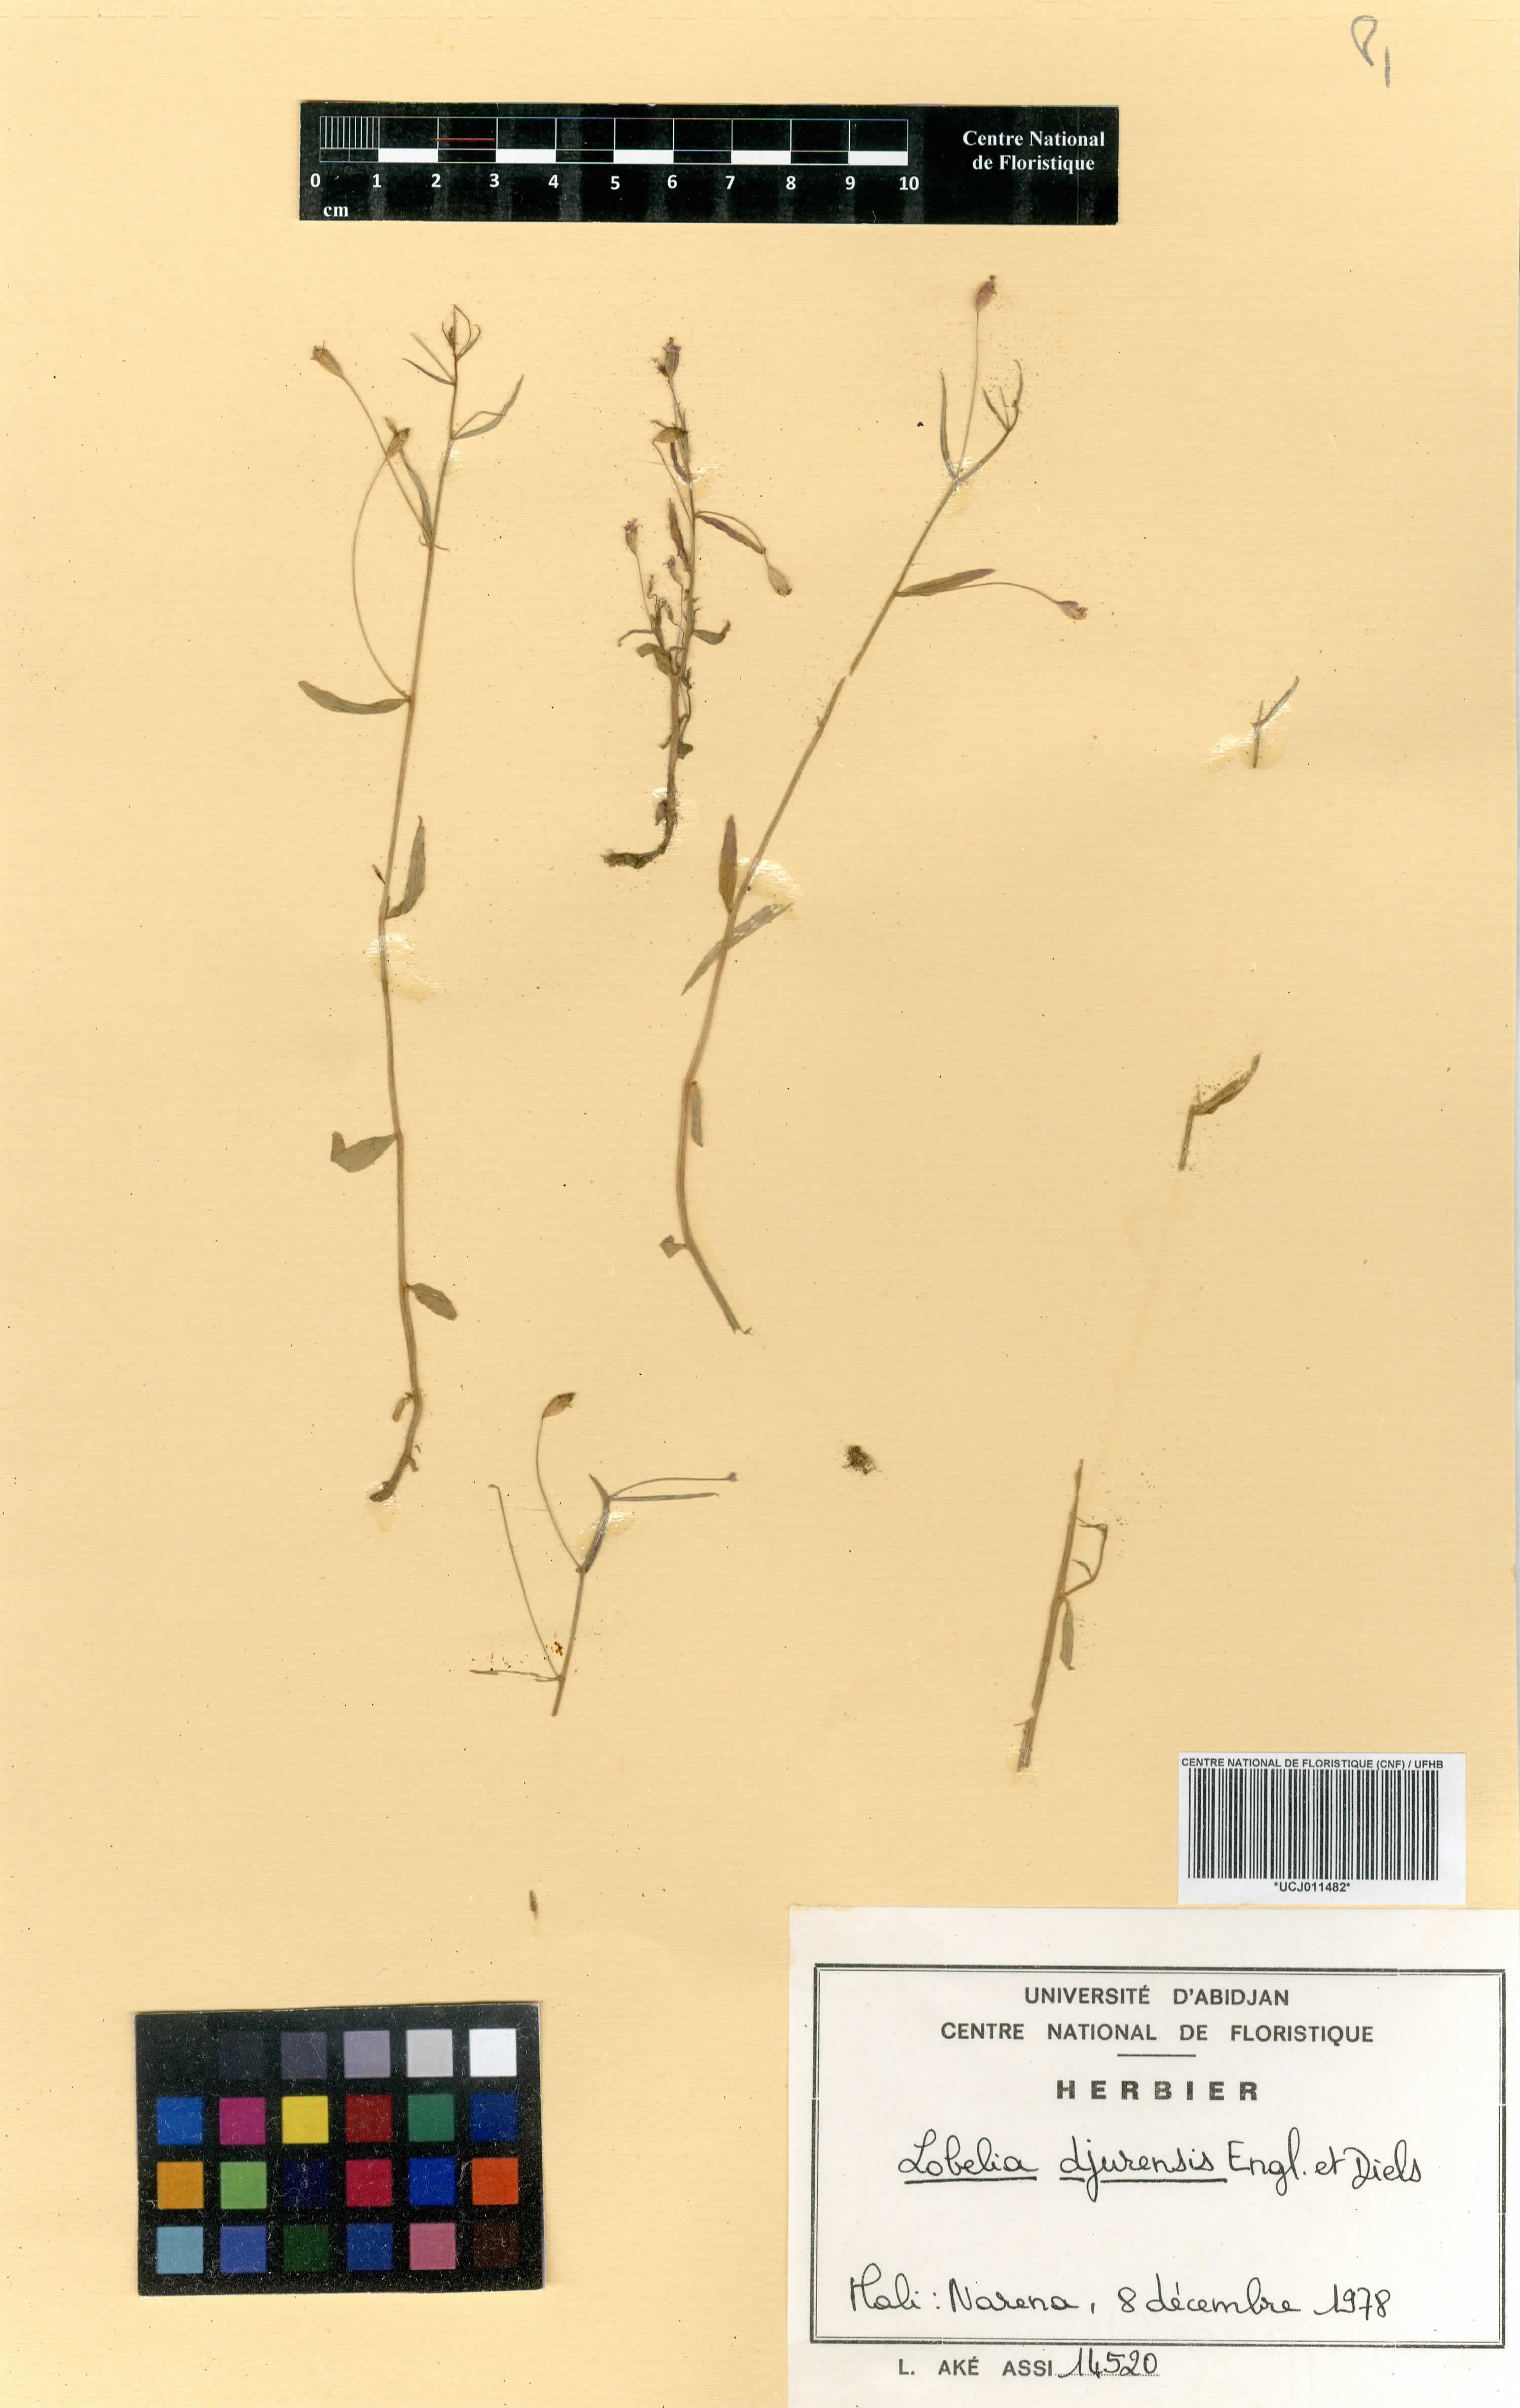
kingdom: Plantae
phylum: Tracheophyta
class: Magnoliopsida
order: Asterales
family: Campanulaceae
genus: Lobelia
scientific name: Lobelia djurensis
